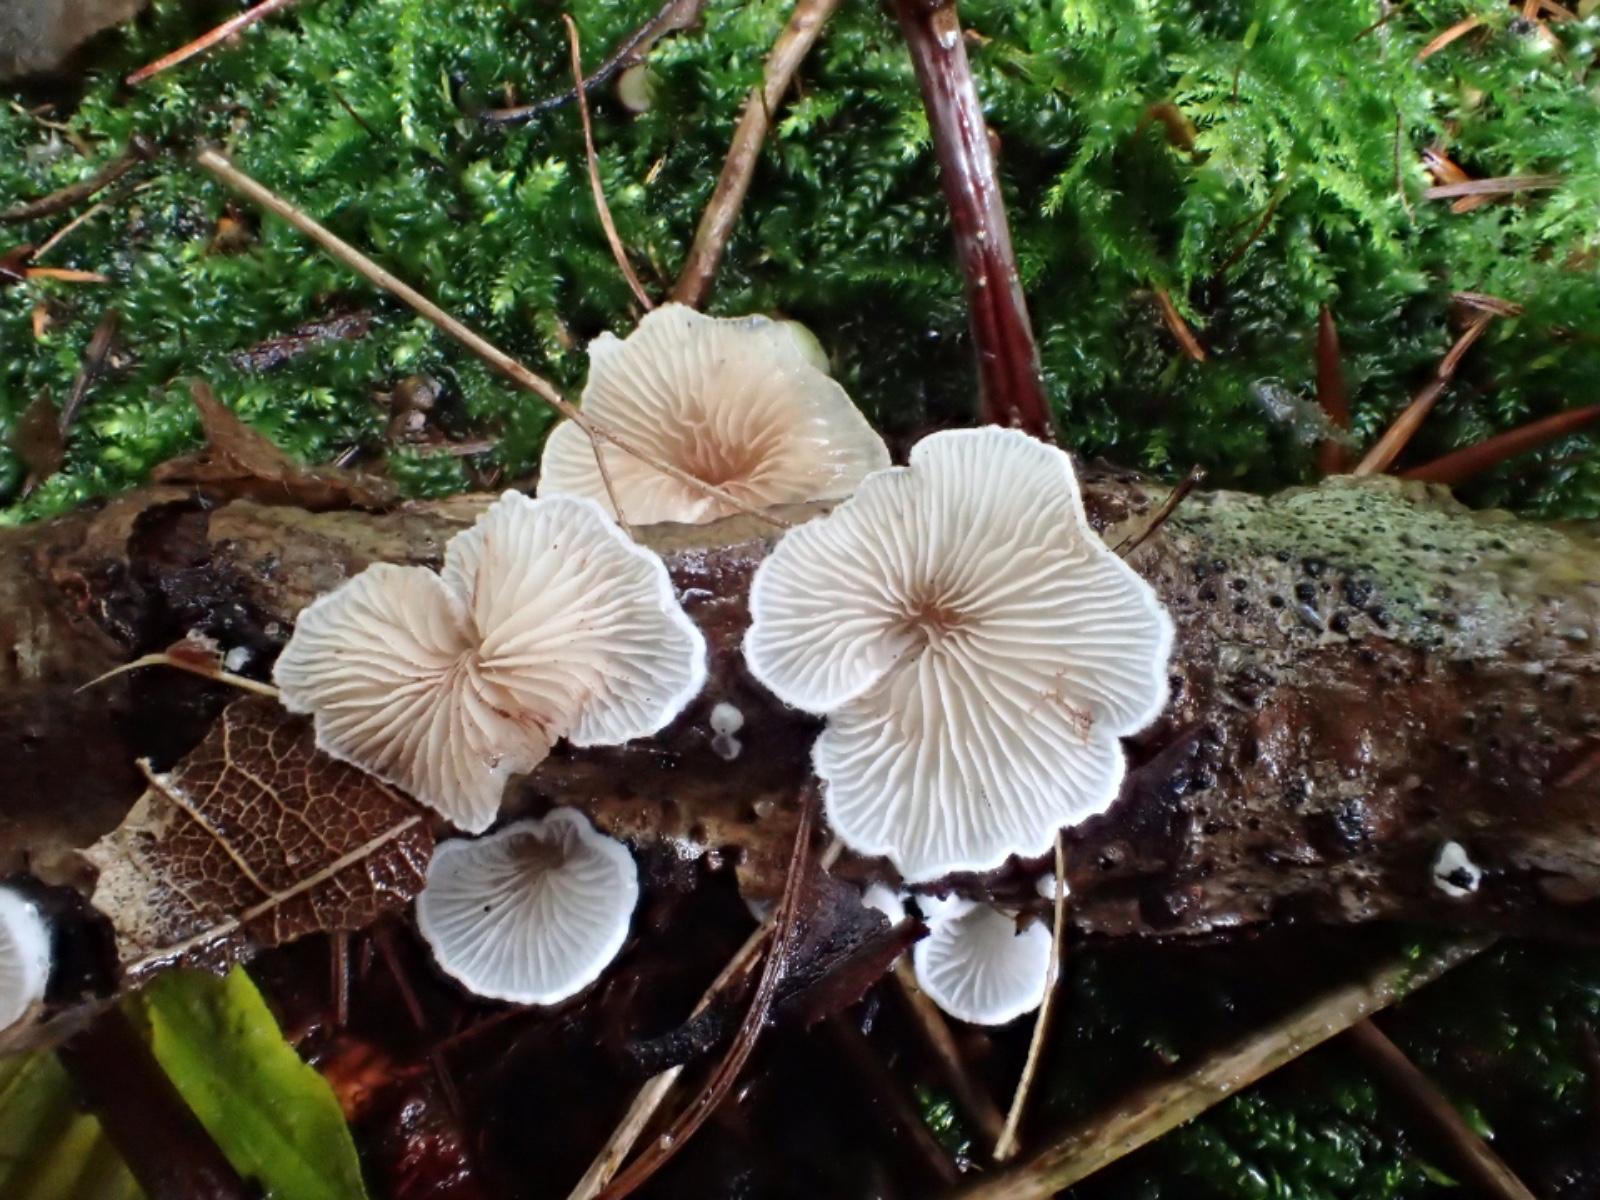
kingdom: Fungi
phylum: Basidiomycota
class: Agaricomycetes
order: Agaricales
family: Crepidotaceae
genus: Crepidotus
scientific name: Crepidotus
